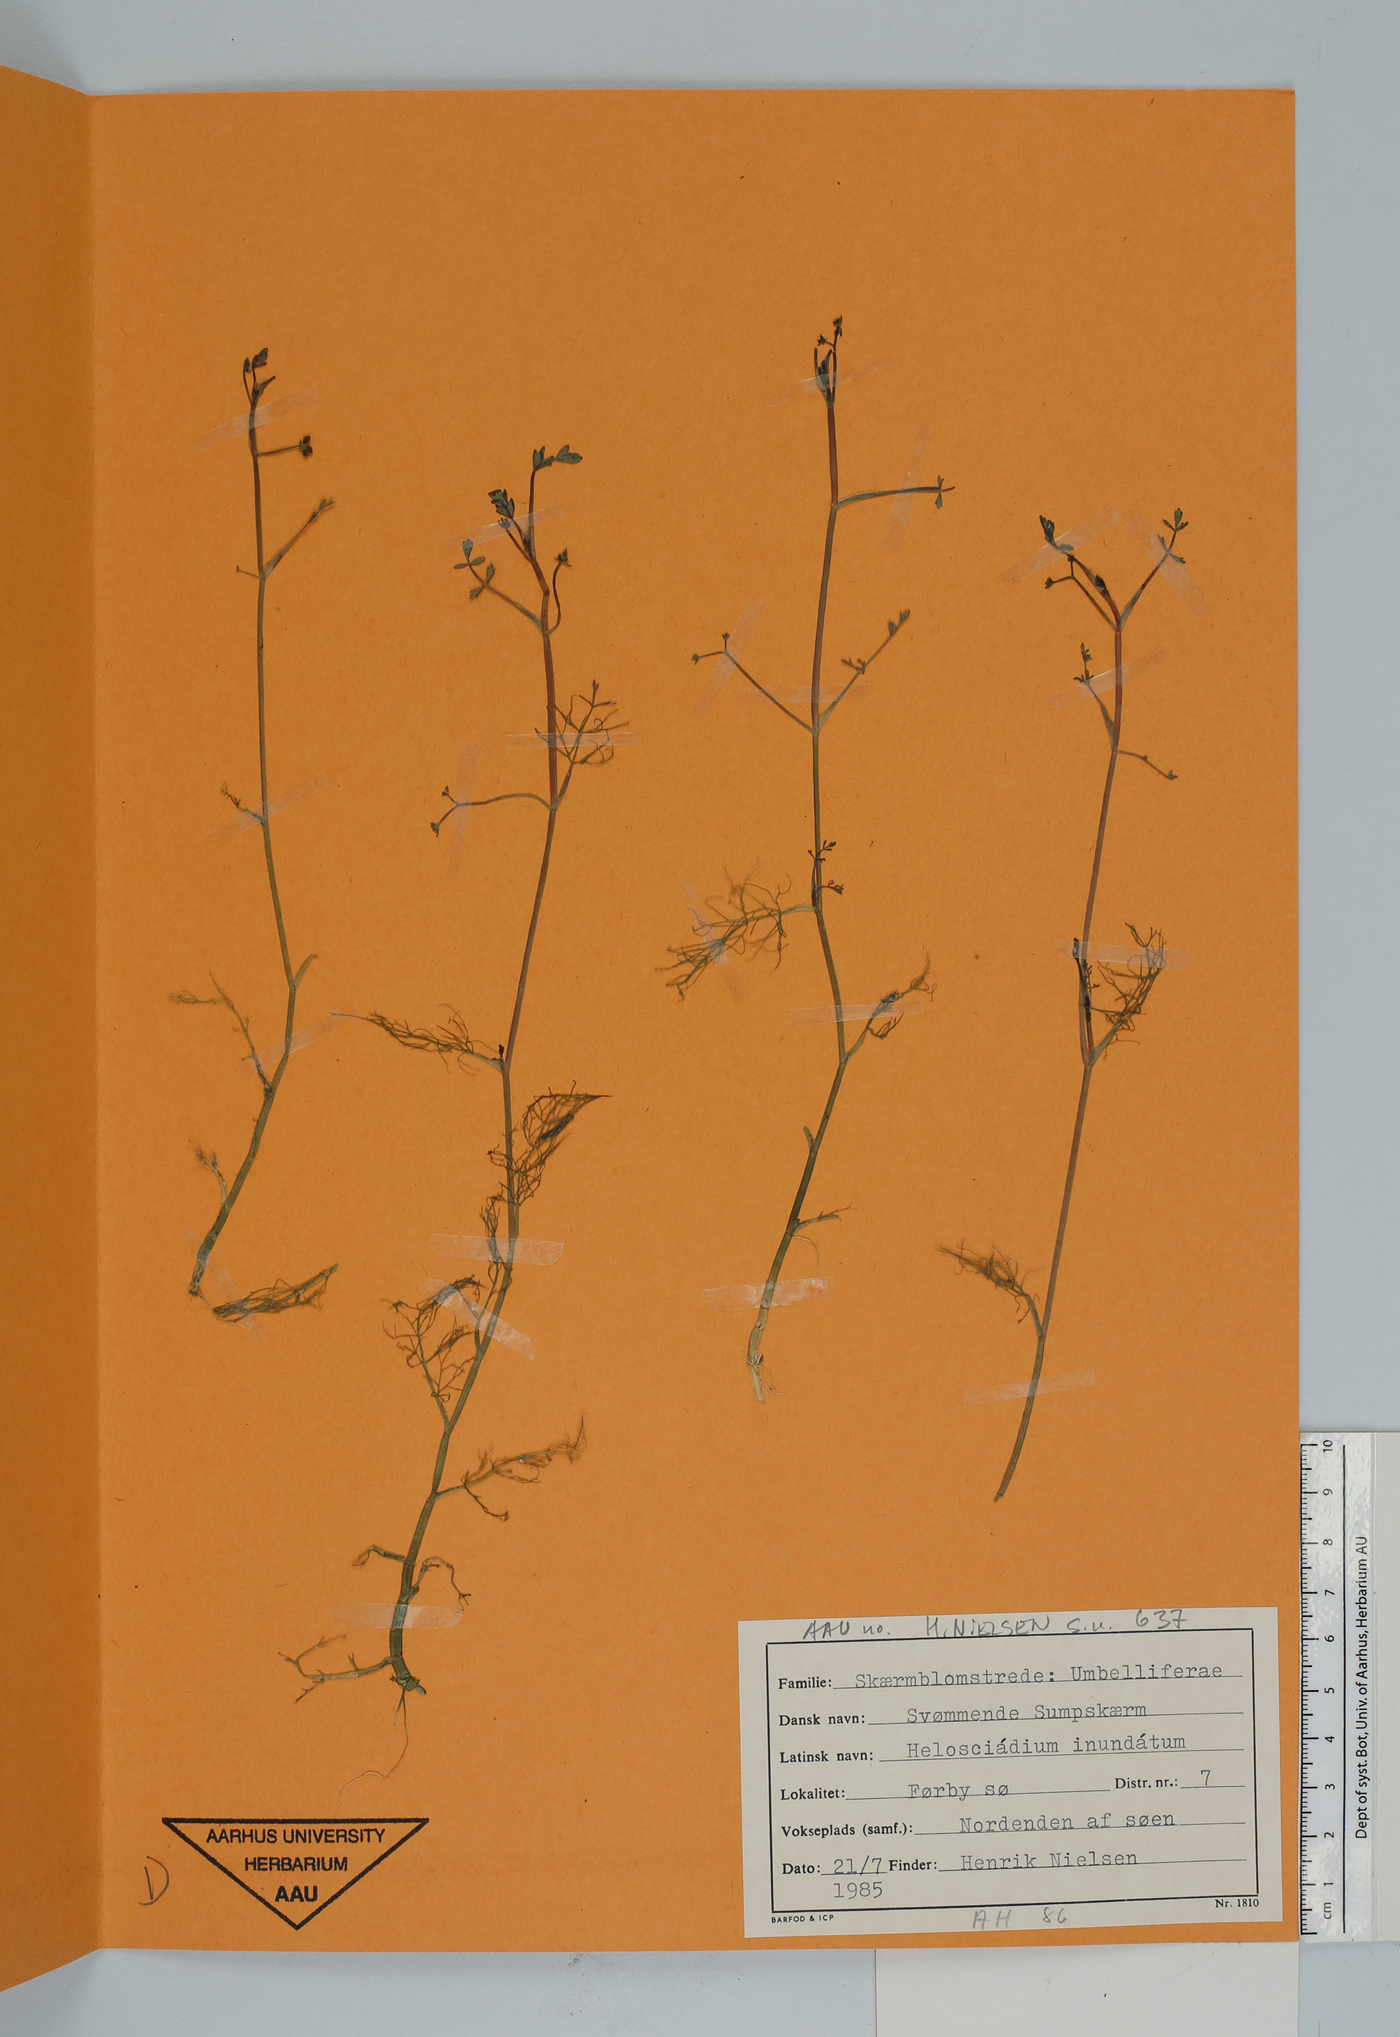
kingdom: Plantae
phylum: Tracheophyta
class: Magnoliopsida
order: Apiales
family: Apiaceae
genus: Helosciadium
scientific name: Helosciadium inundatum
